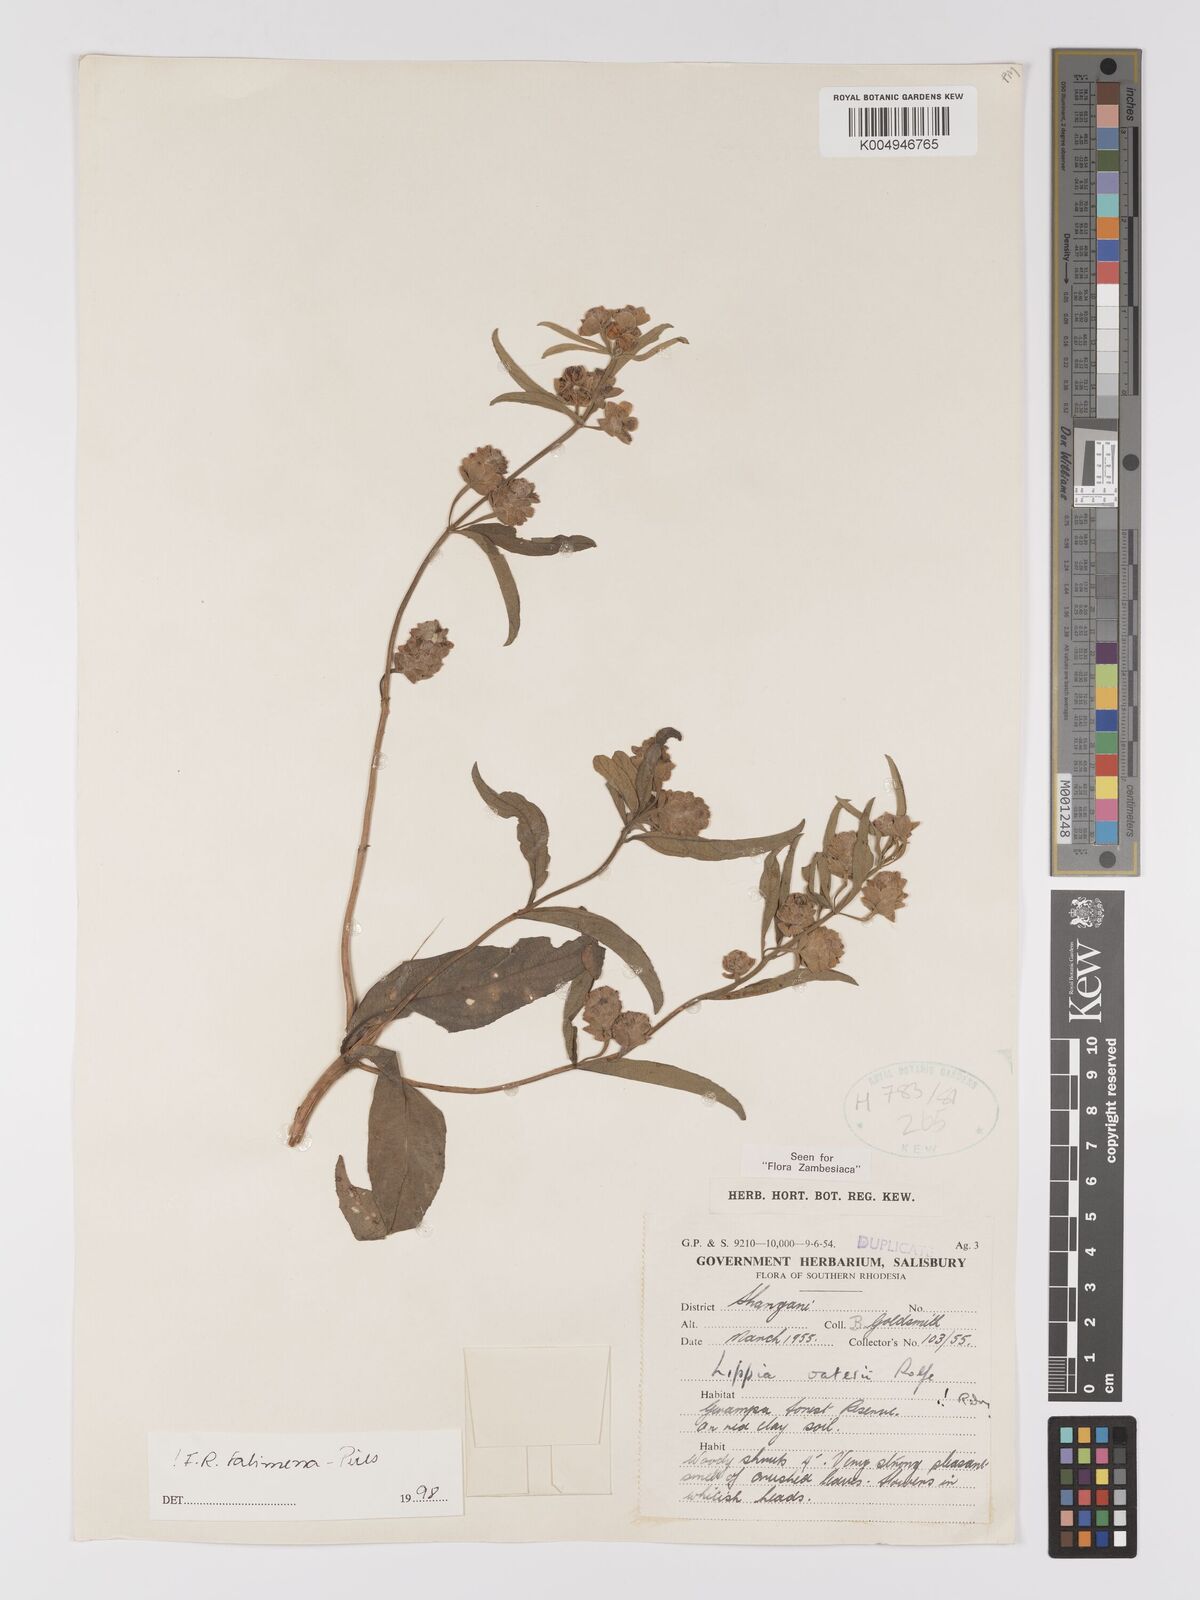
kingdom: Plantae
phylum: Tracheophyta
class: Magnoliopsida
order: Lamiales
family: Verbenaceae
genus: Lippia
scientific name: Lippia oatesii
